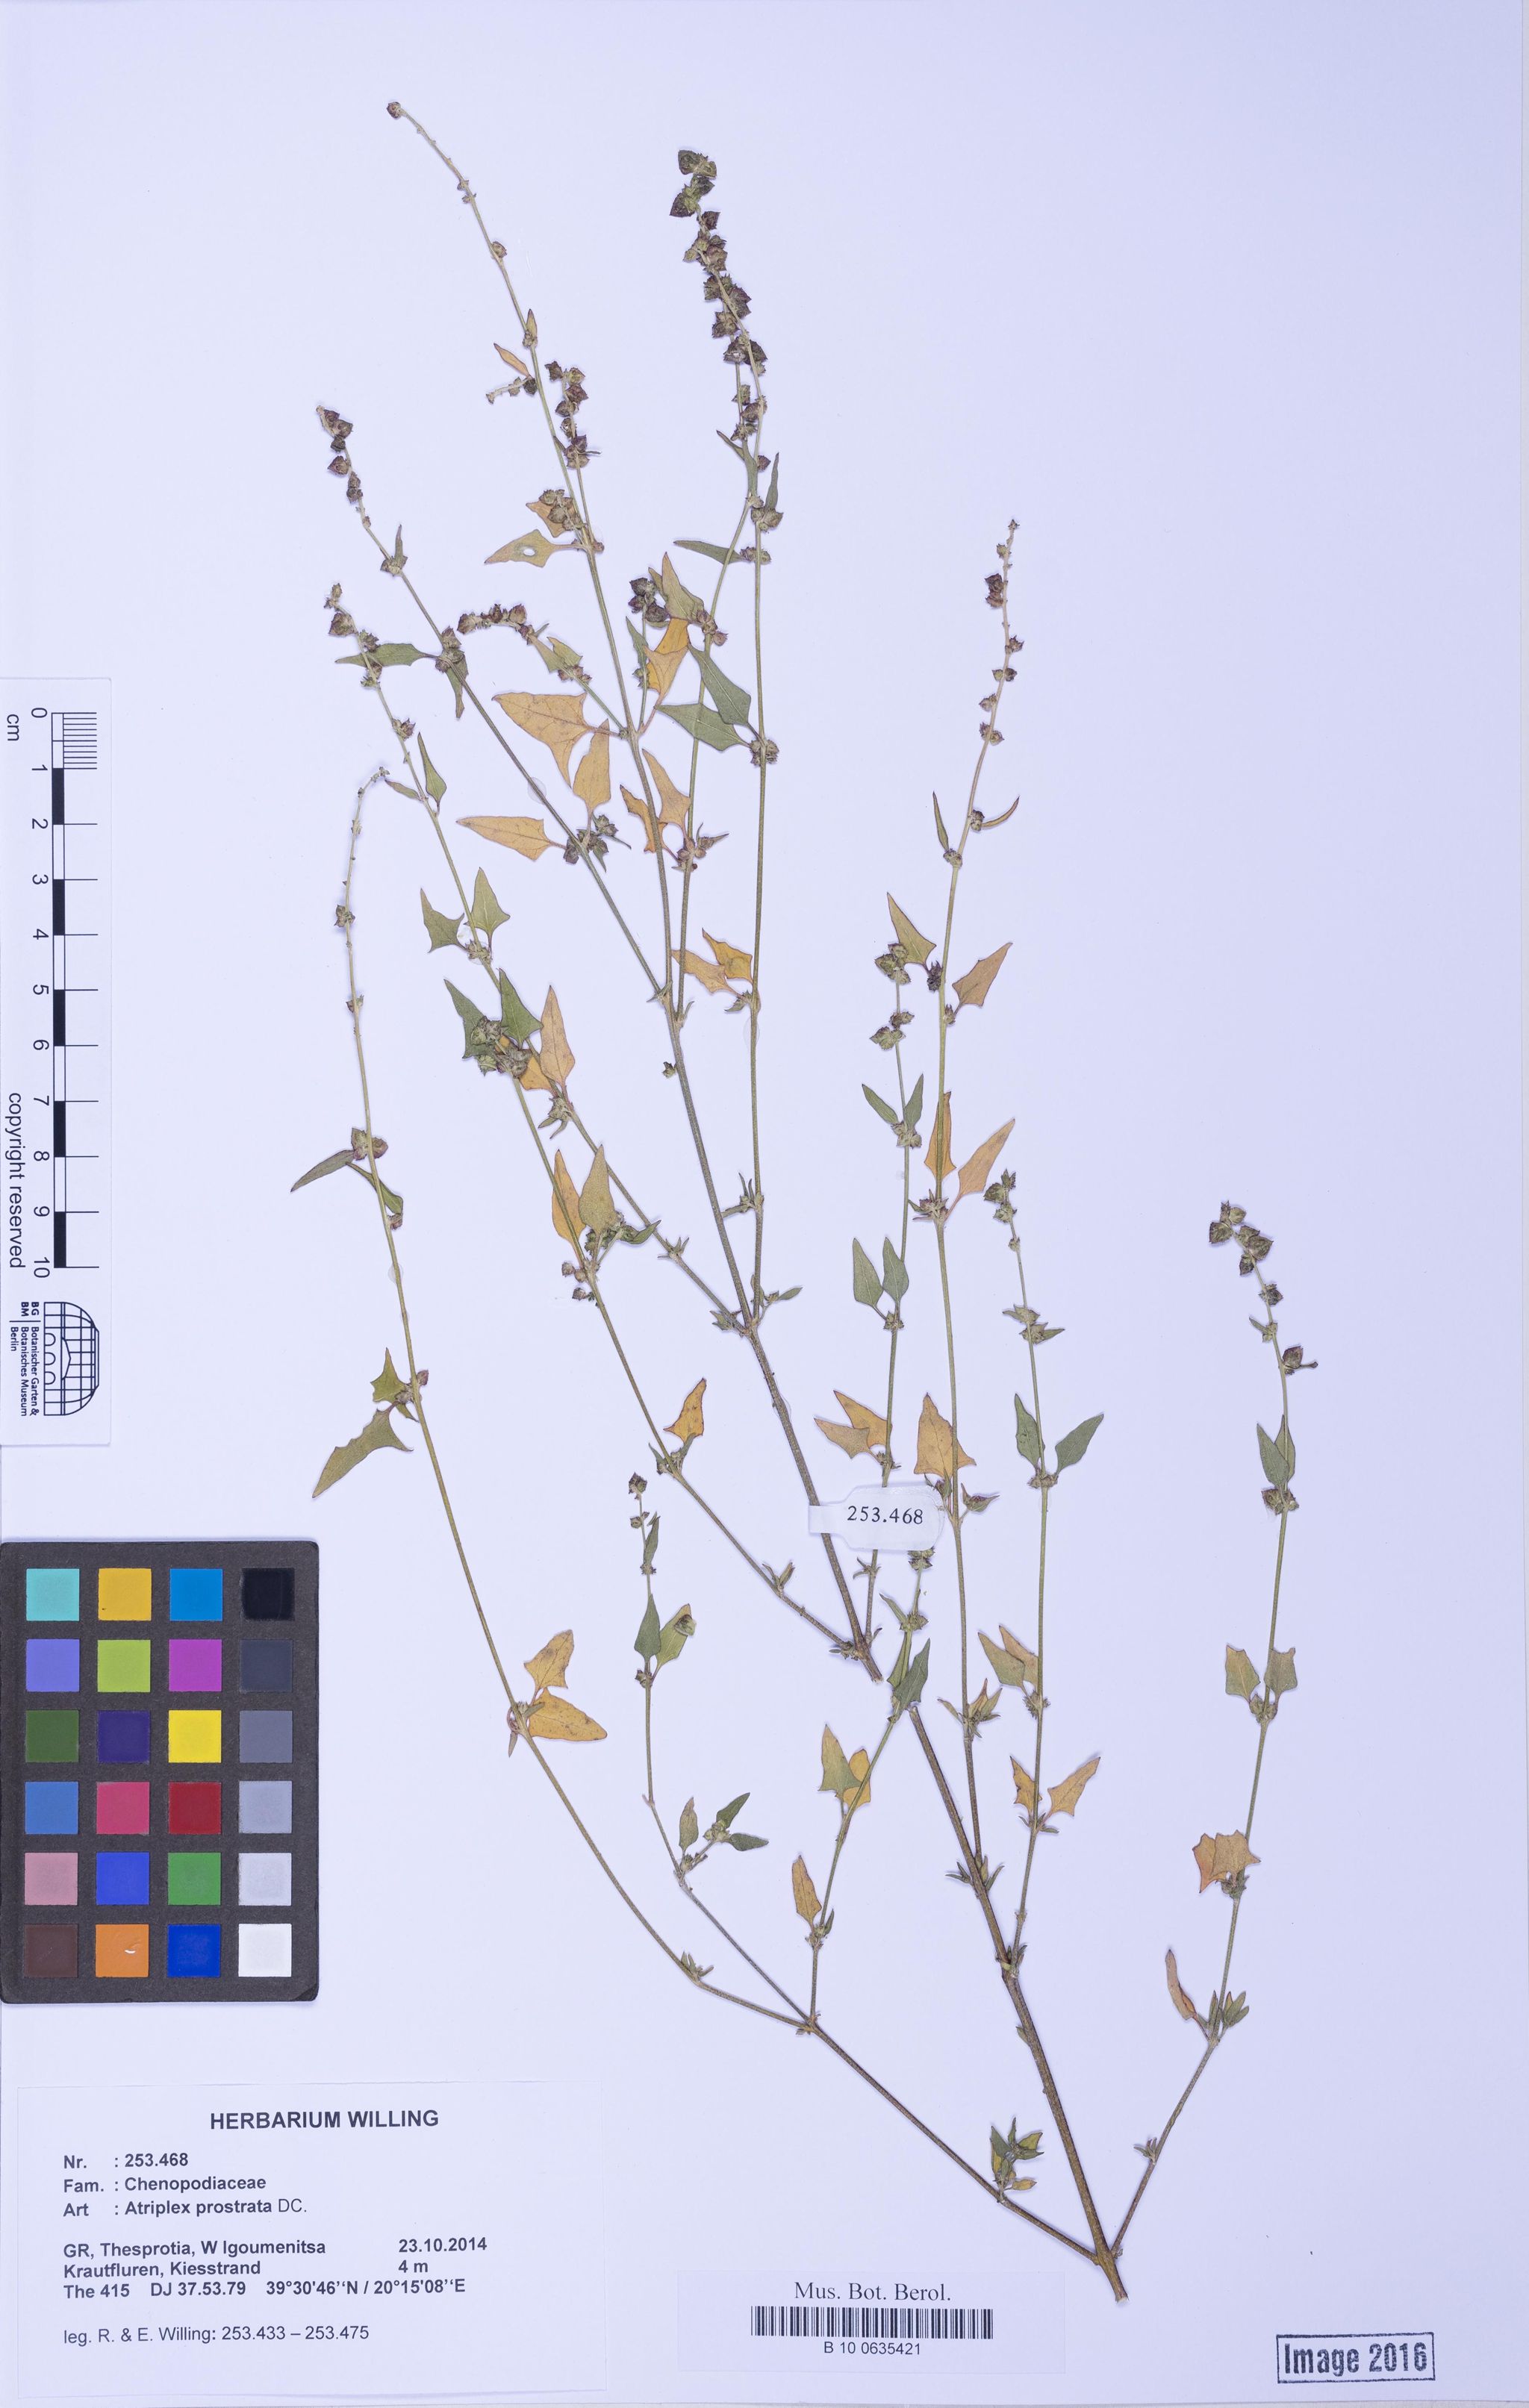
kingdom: Plantae
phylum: Tracheophyta
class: Magnoliopsida
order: Caryophyllales
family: Amaranthaceae
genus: Atriplex
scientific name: Atriplex prostrata
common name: Spear-leaved orache
